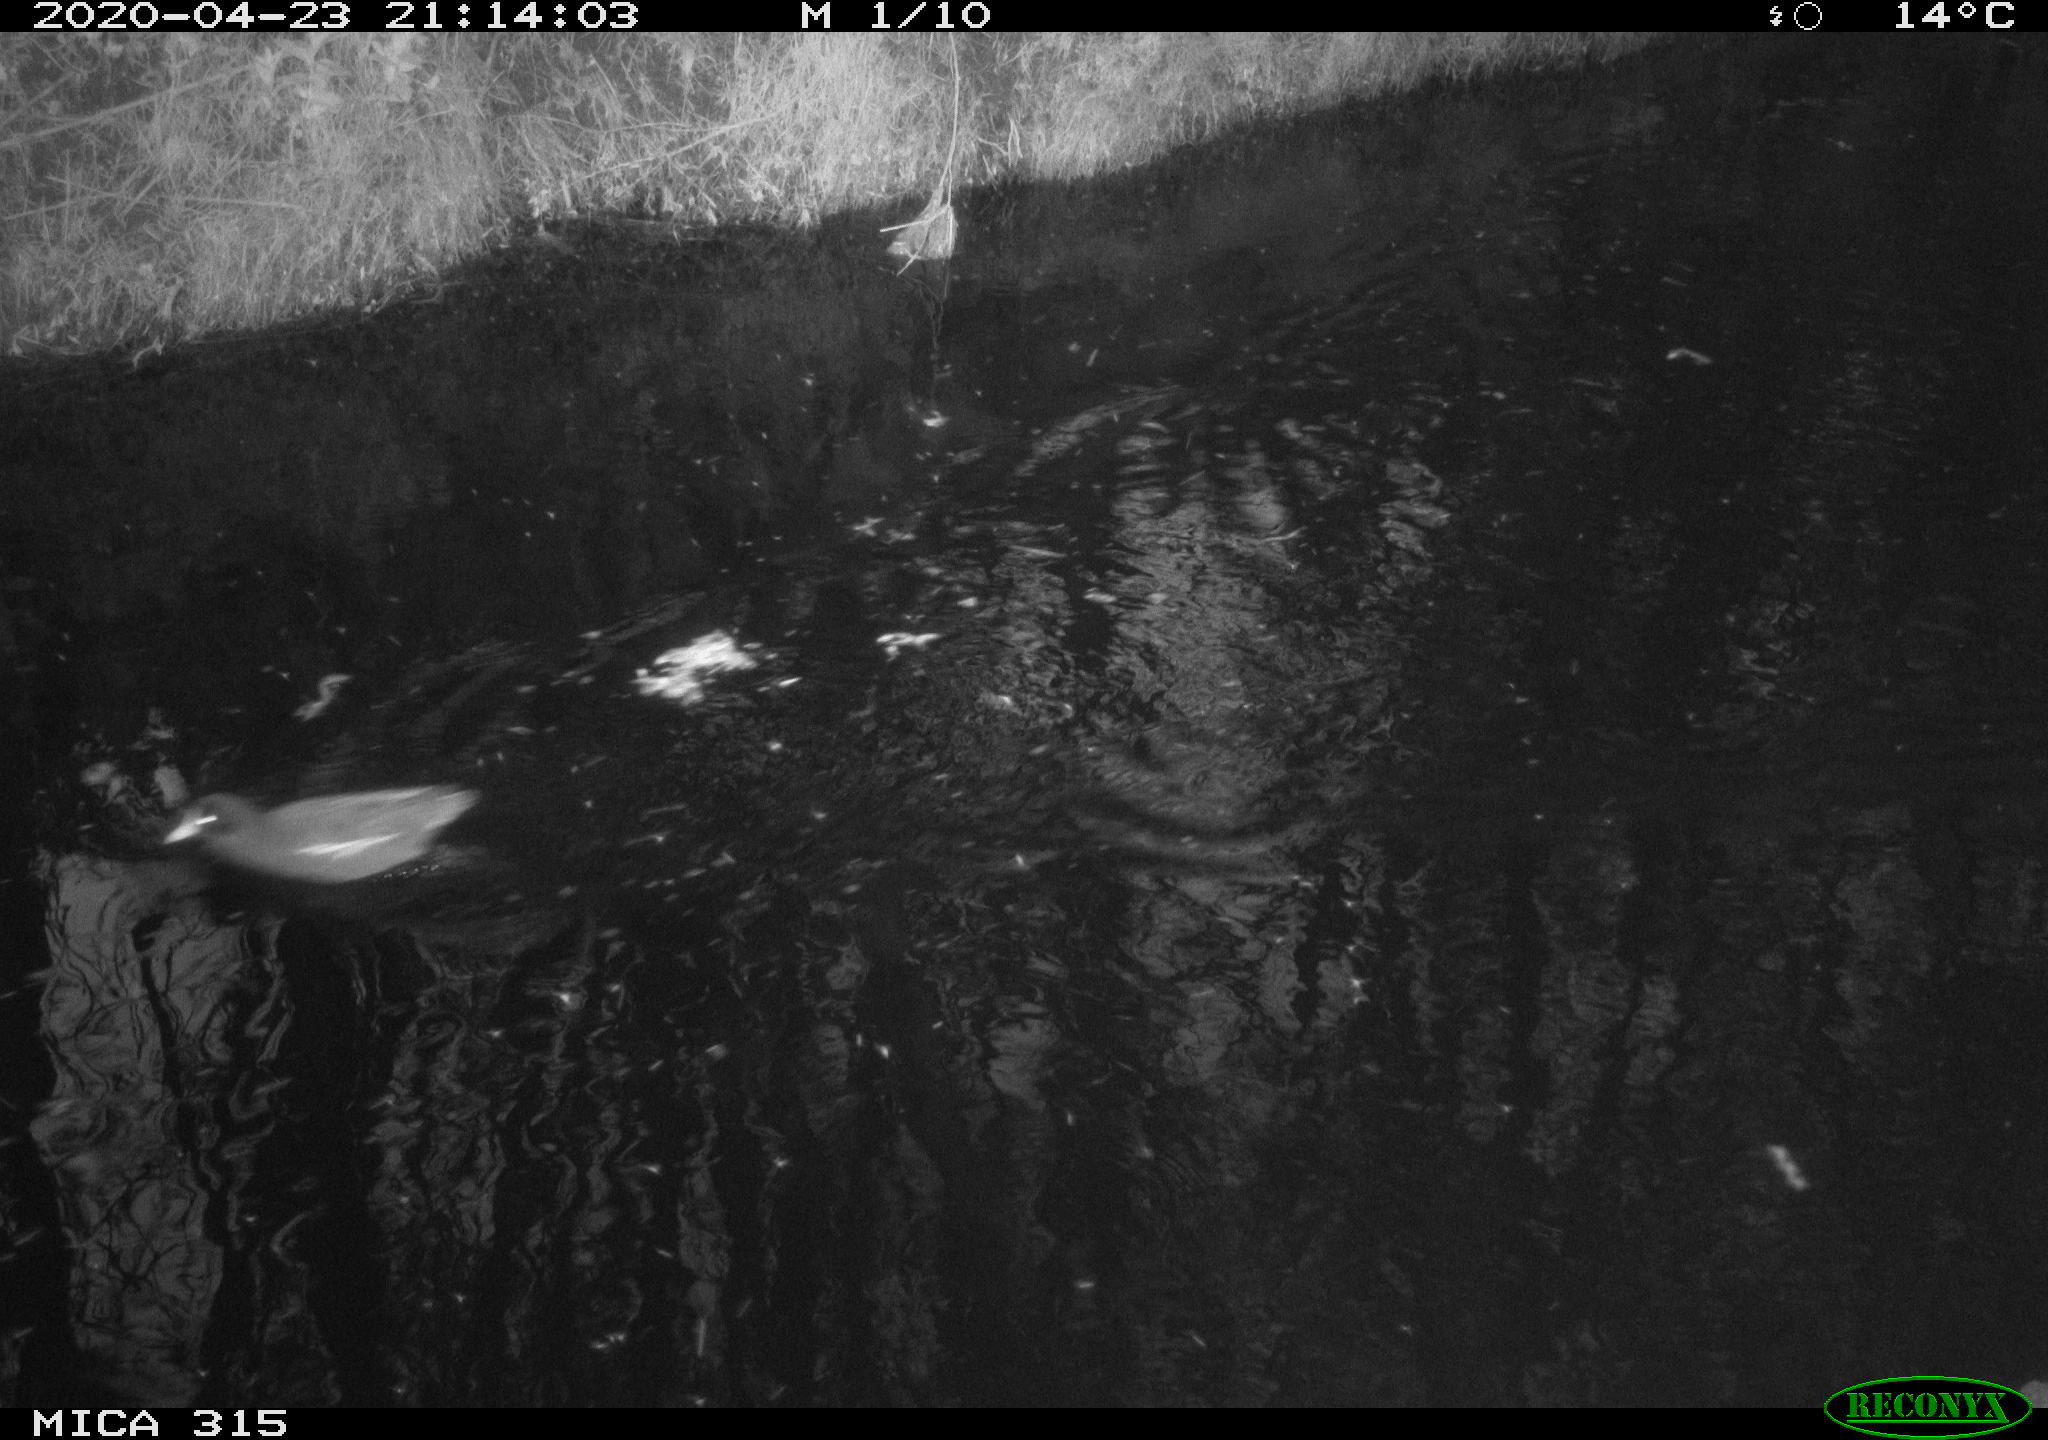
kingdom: Animalia
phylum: Chordata
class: Aves
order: Gruiformes
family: Rallidae
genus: Gallinula
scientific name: Gallinula chloropus
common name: Common moorhen
